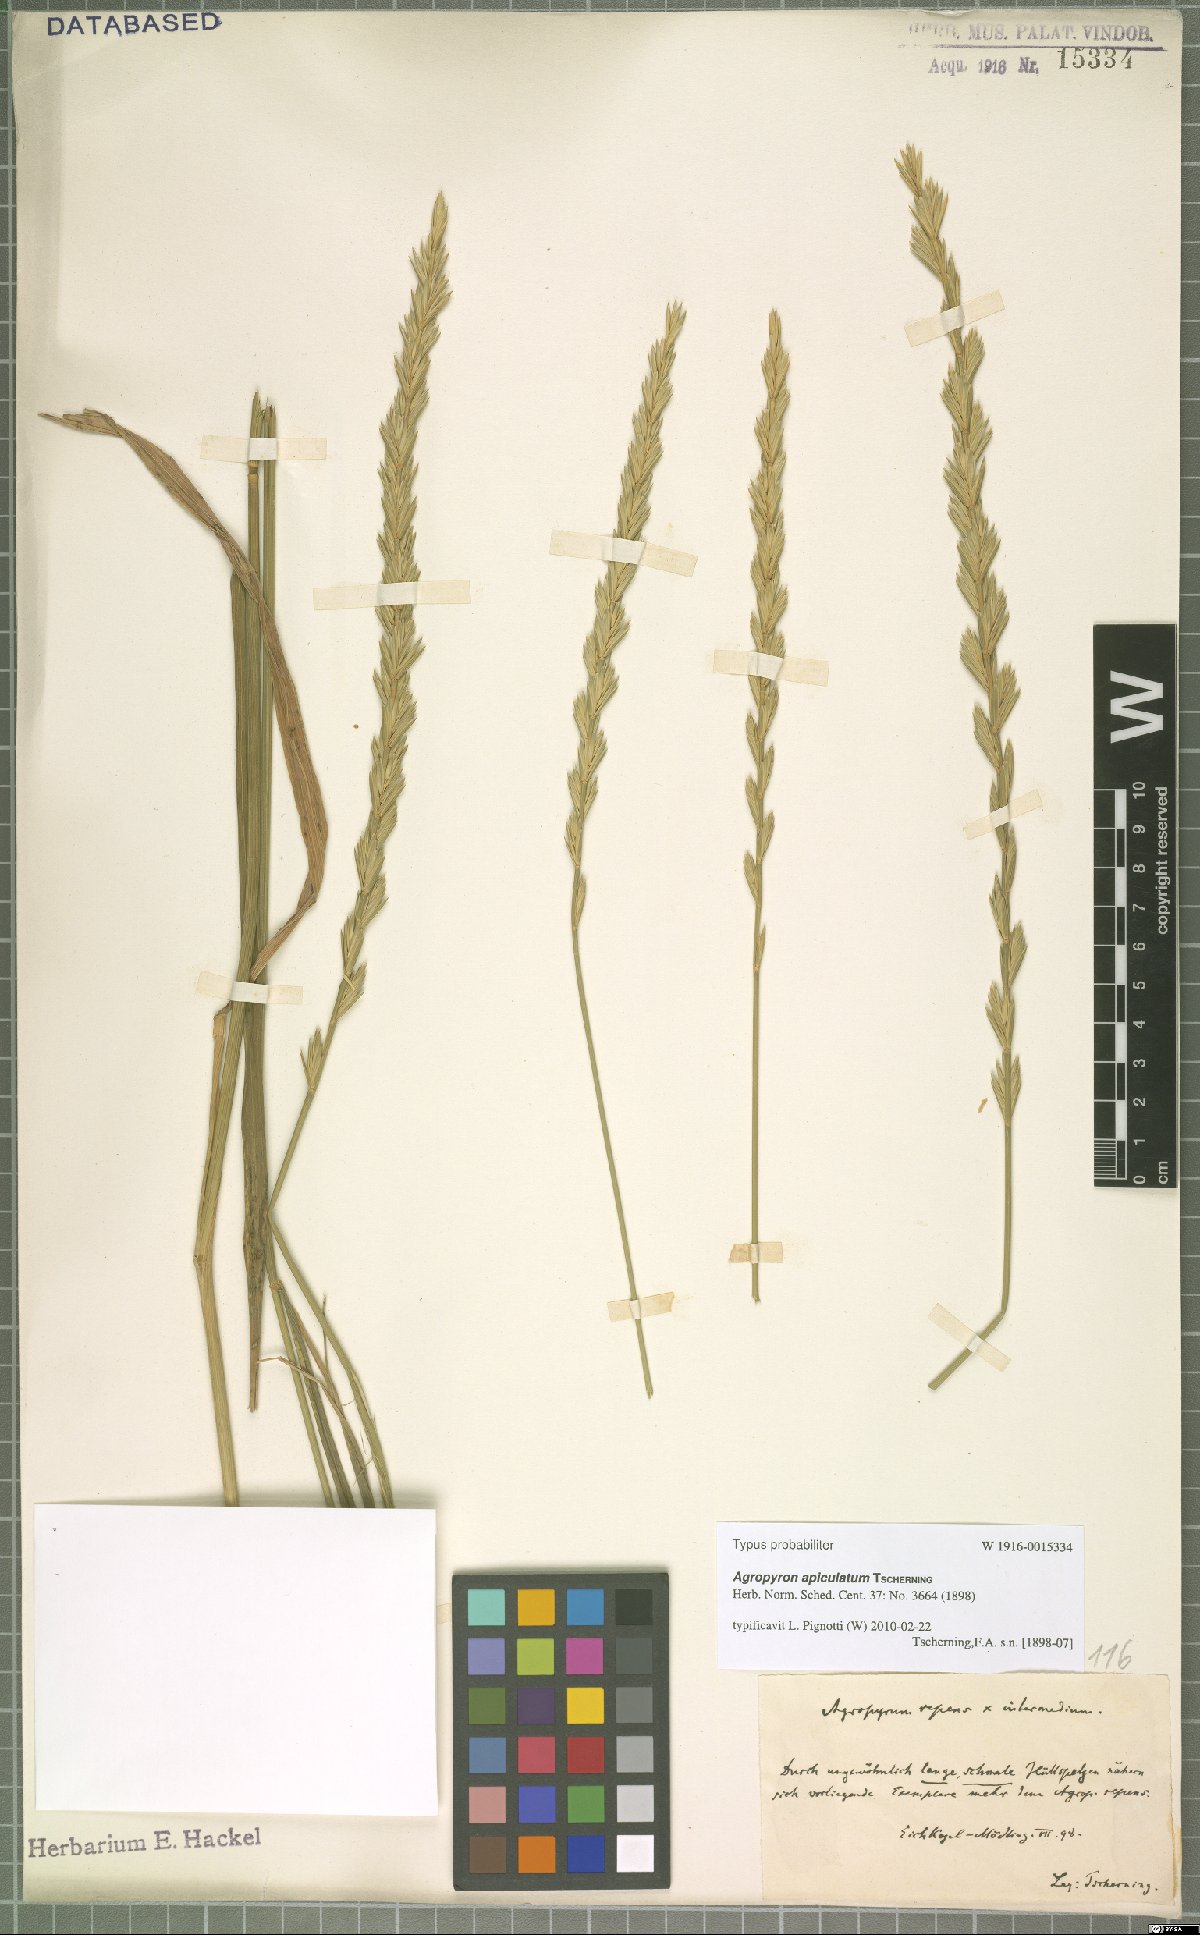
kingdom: Plantae
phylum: Tracheophyta
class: Liliopsida
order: Poales
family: Poaceae
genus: Elymus
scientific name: Elymus apiculatus
